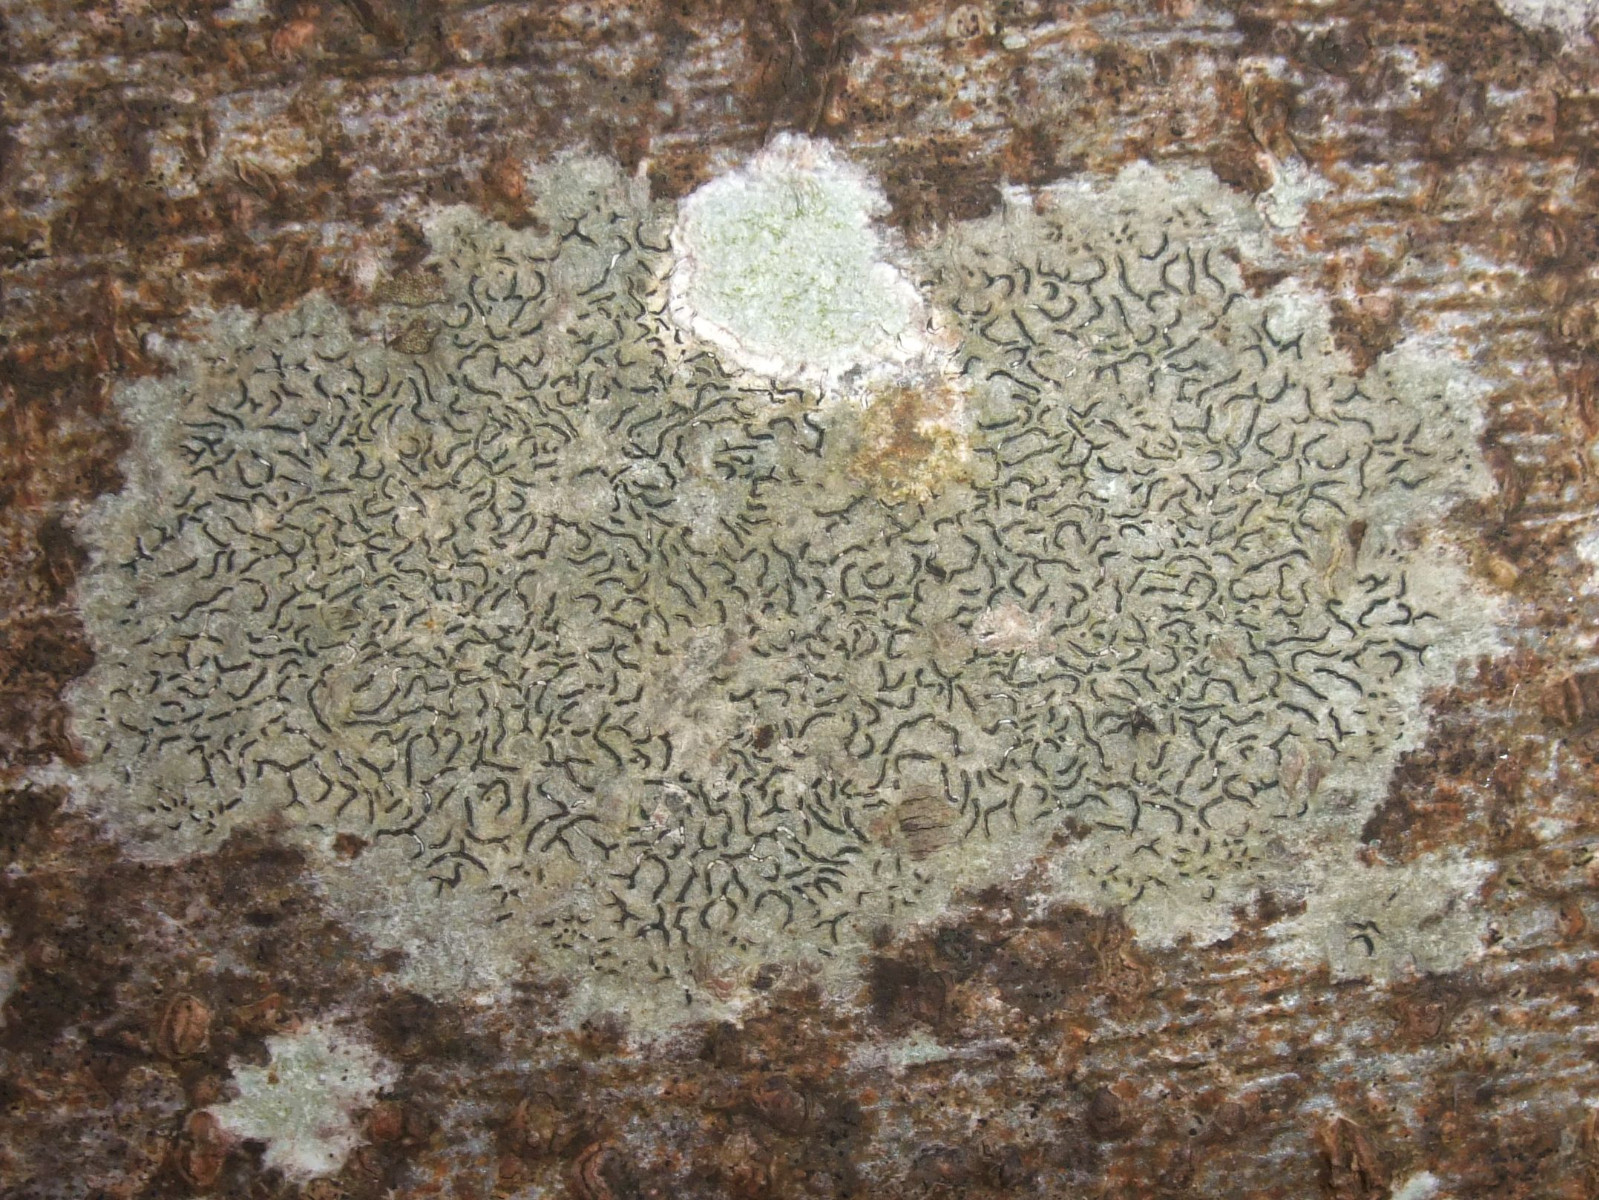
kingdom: Fungi
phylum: Ascomycota
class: Lecanoromycetes
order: Ostropales
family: Graphidaceae
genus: Graphis
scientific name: Graphis scripta
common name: almindelig skriftlav
